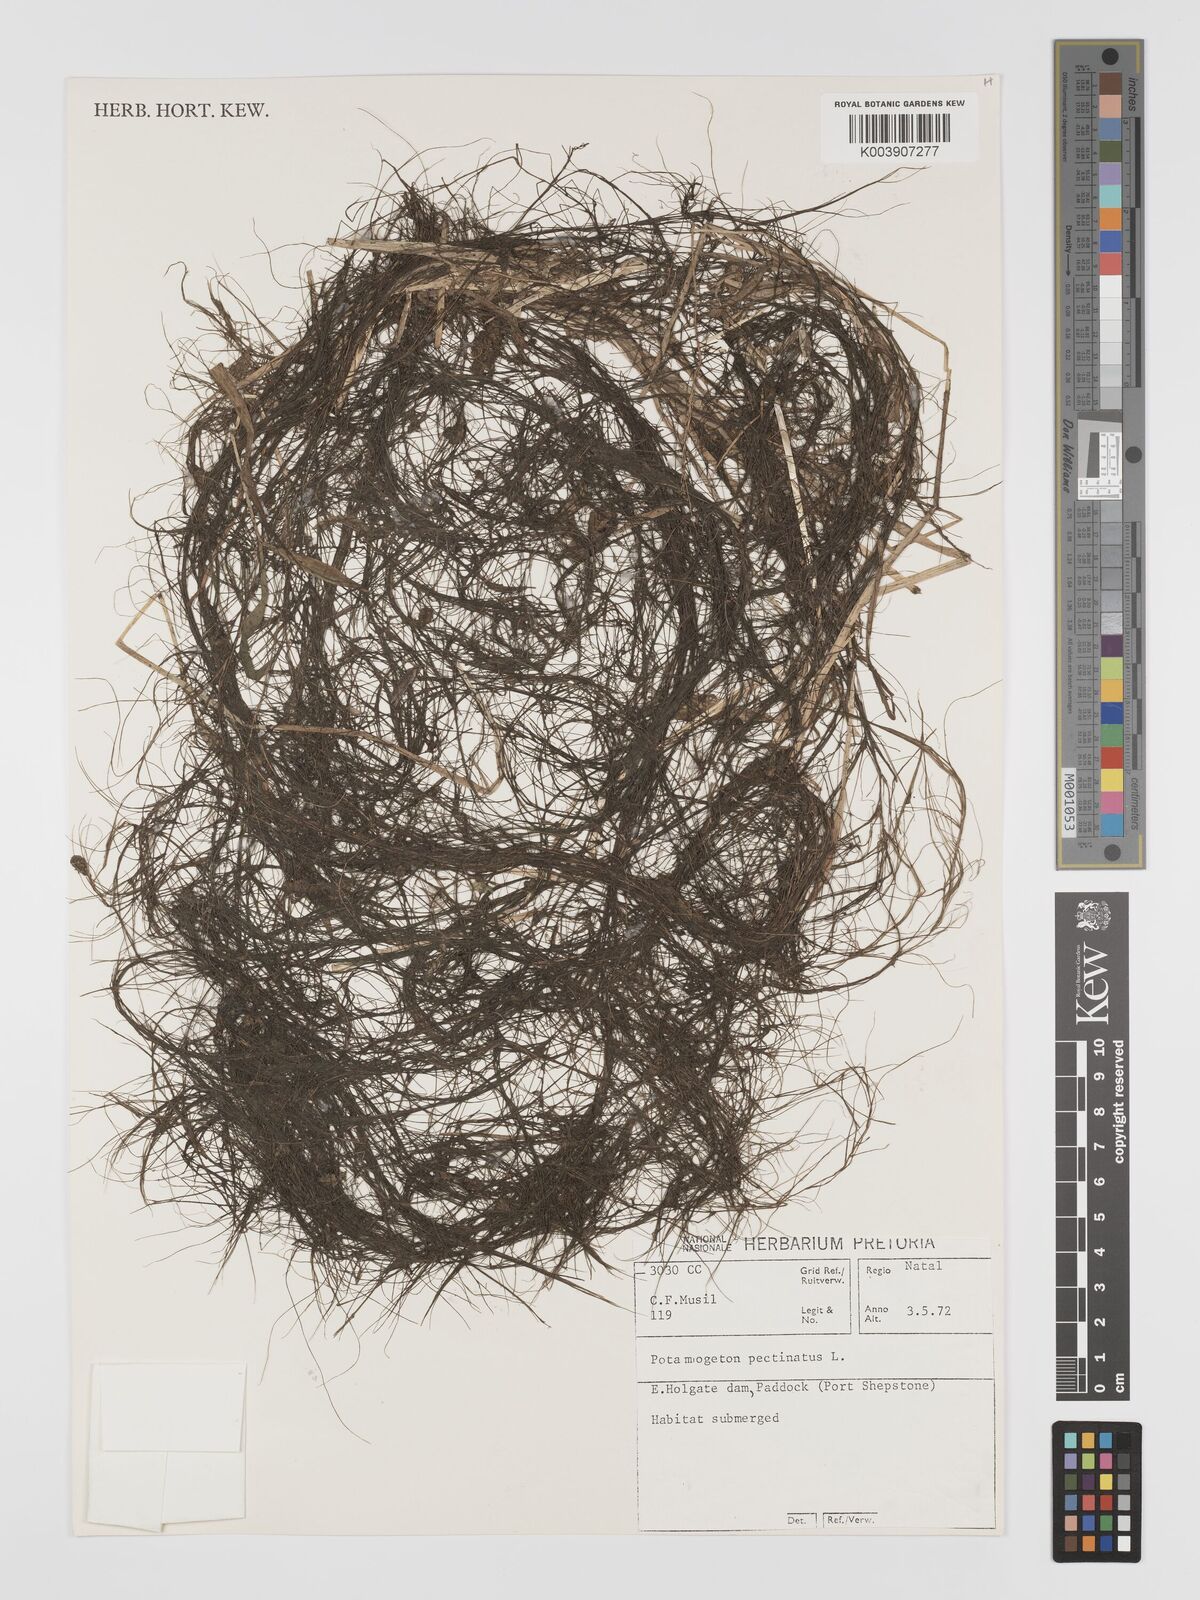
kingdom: Plantae
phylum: Tracheophyta
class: Liliopsida
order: Alismatales
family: Potamogetonaceae
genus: Stuckenia
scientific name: Stuckenia pectinata
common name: Sago pondweed
